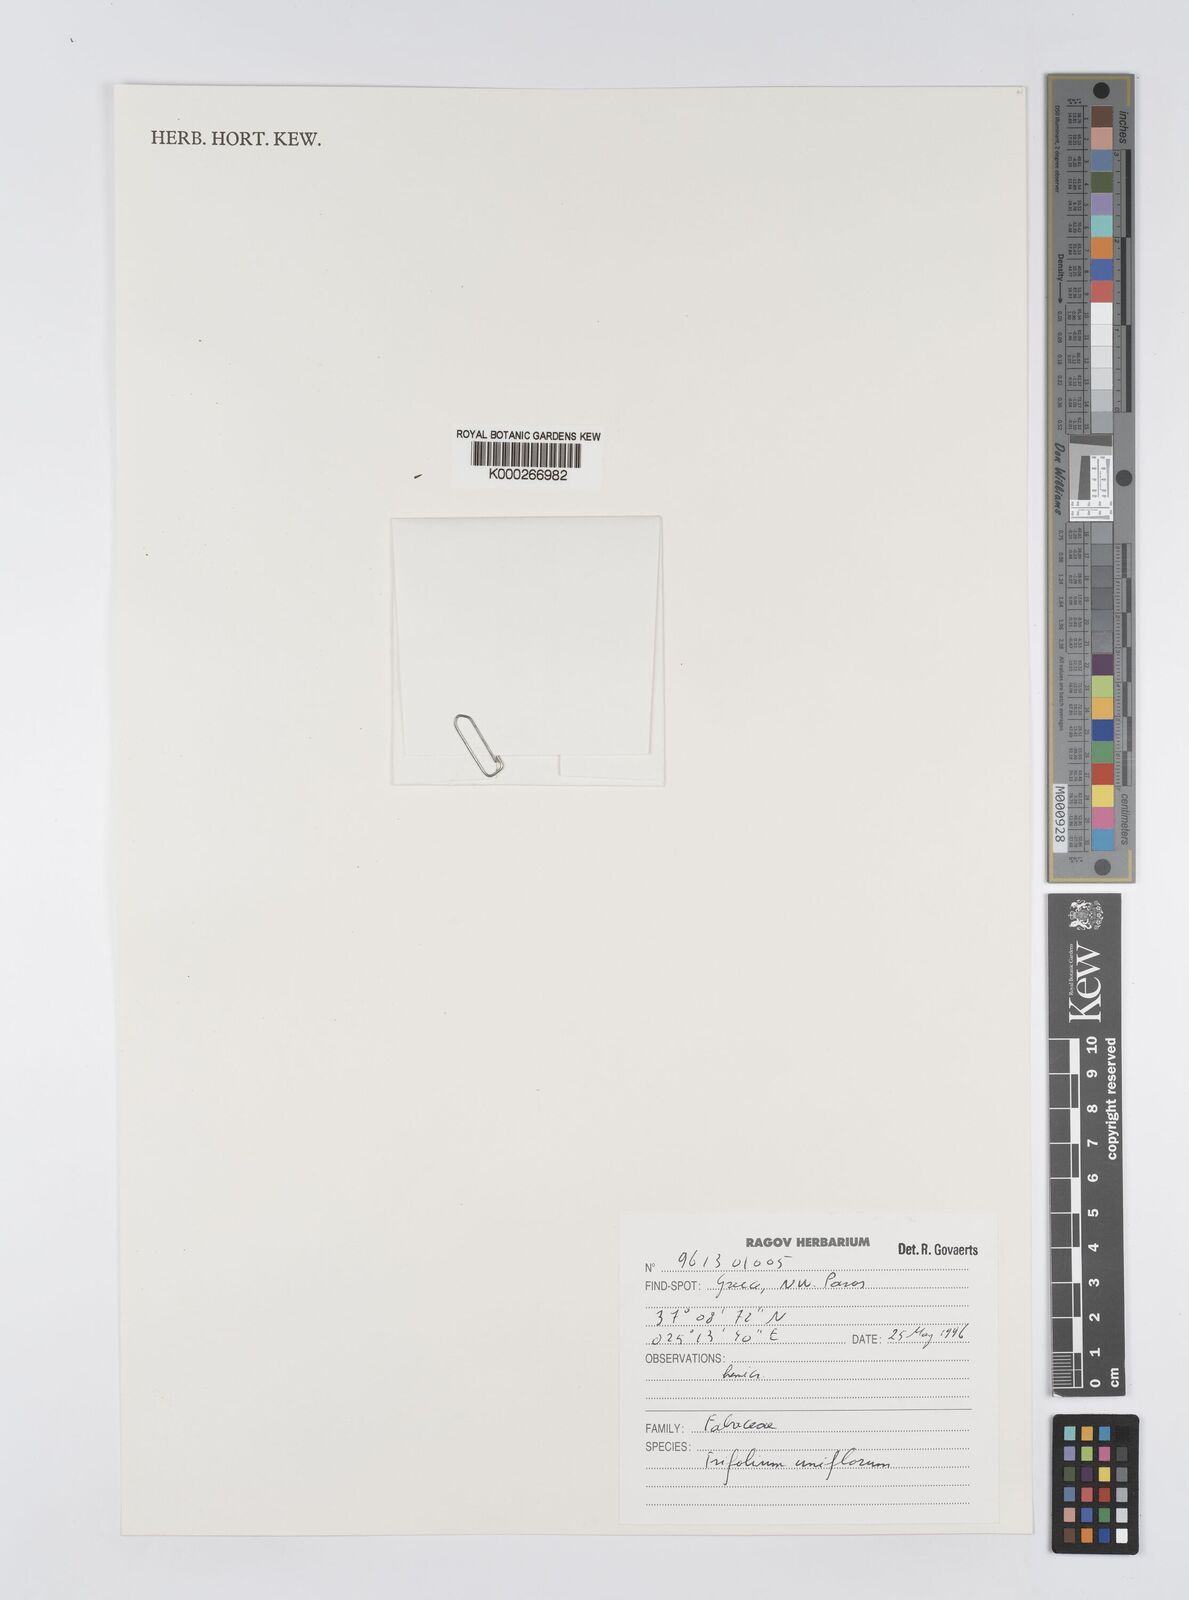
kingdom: Plantae
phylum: Tracheophyta
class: Magnoliopsida
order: Fabales
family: Fabaceae
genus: Trifolium
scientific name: Trifolium uniflorum
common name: One-flower clover
